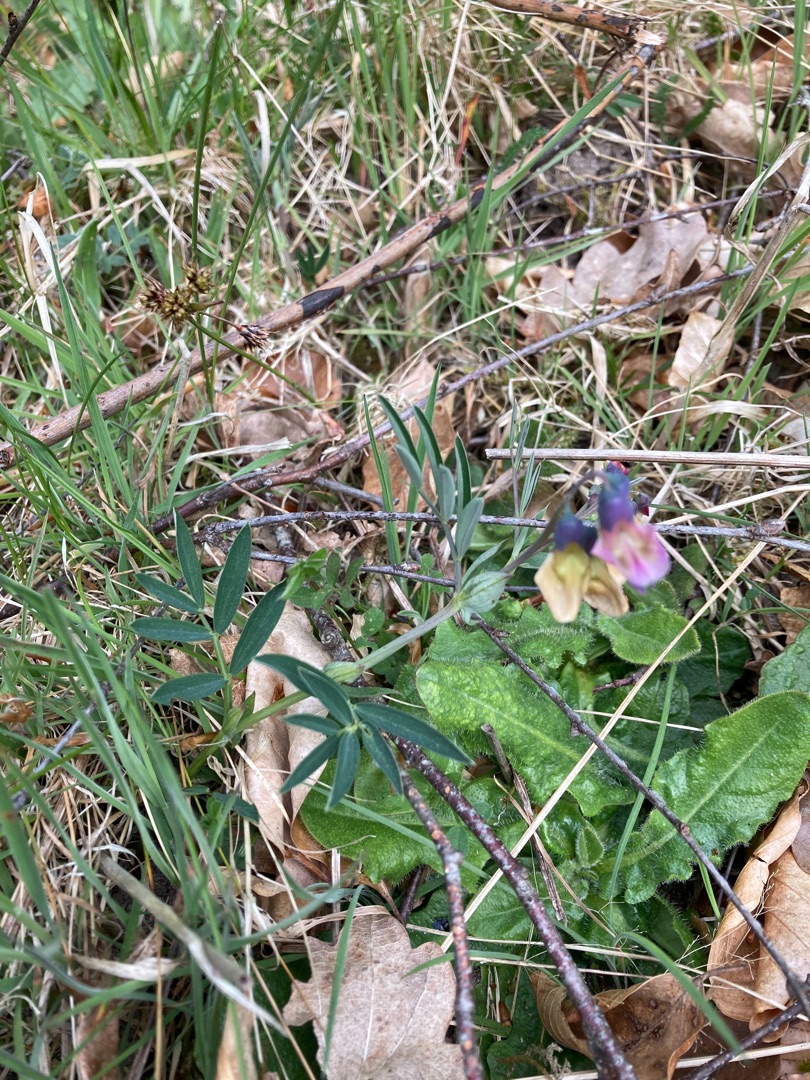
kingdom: Plantae
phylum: Tracheophyta
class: Magnoliopsida
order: Fabales
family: Fabaceae
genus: Lathyrus
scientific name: Lathyrus linifolius
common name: Krat-fladbælg
